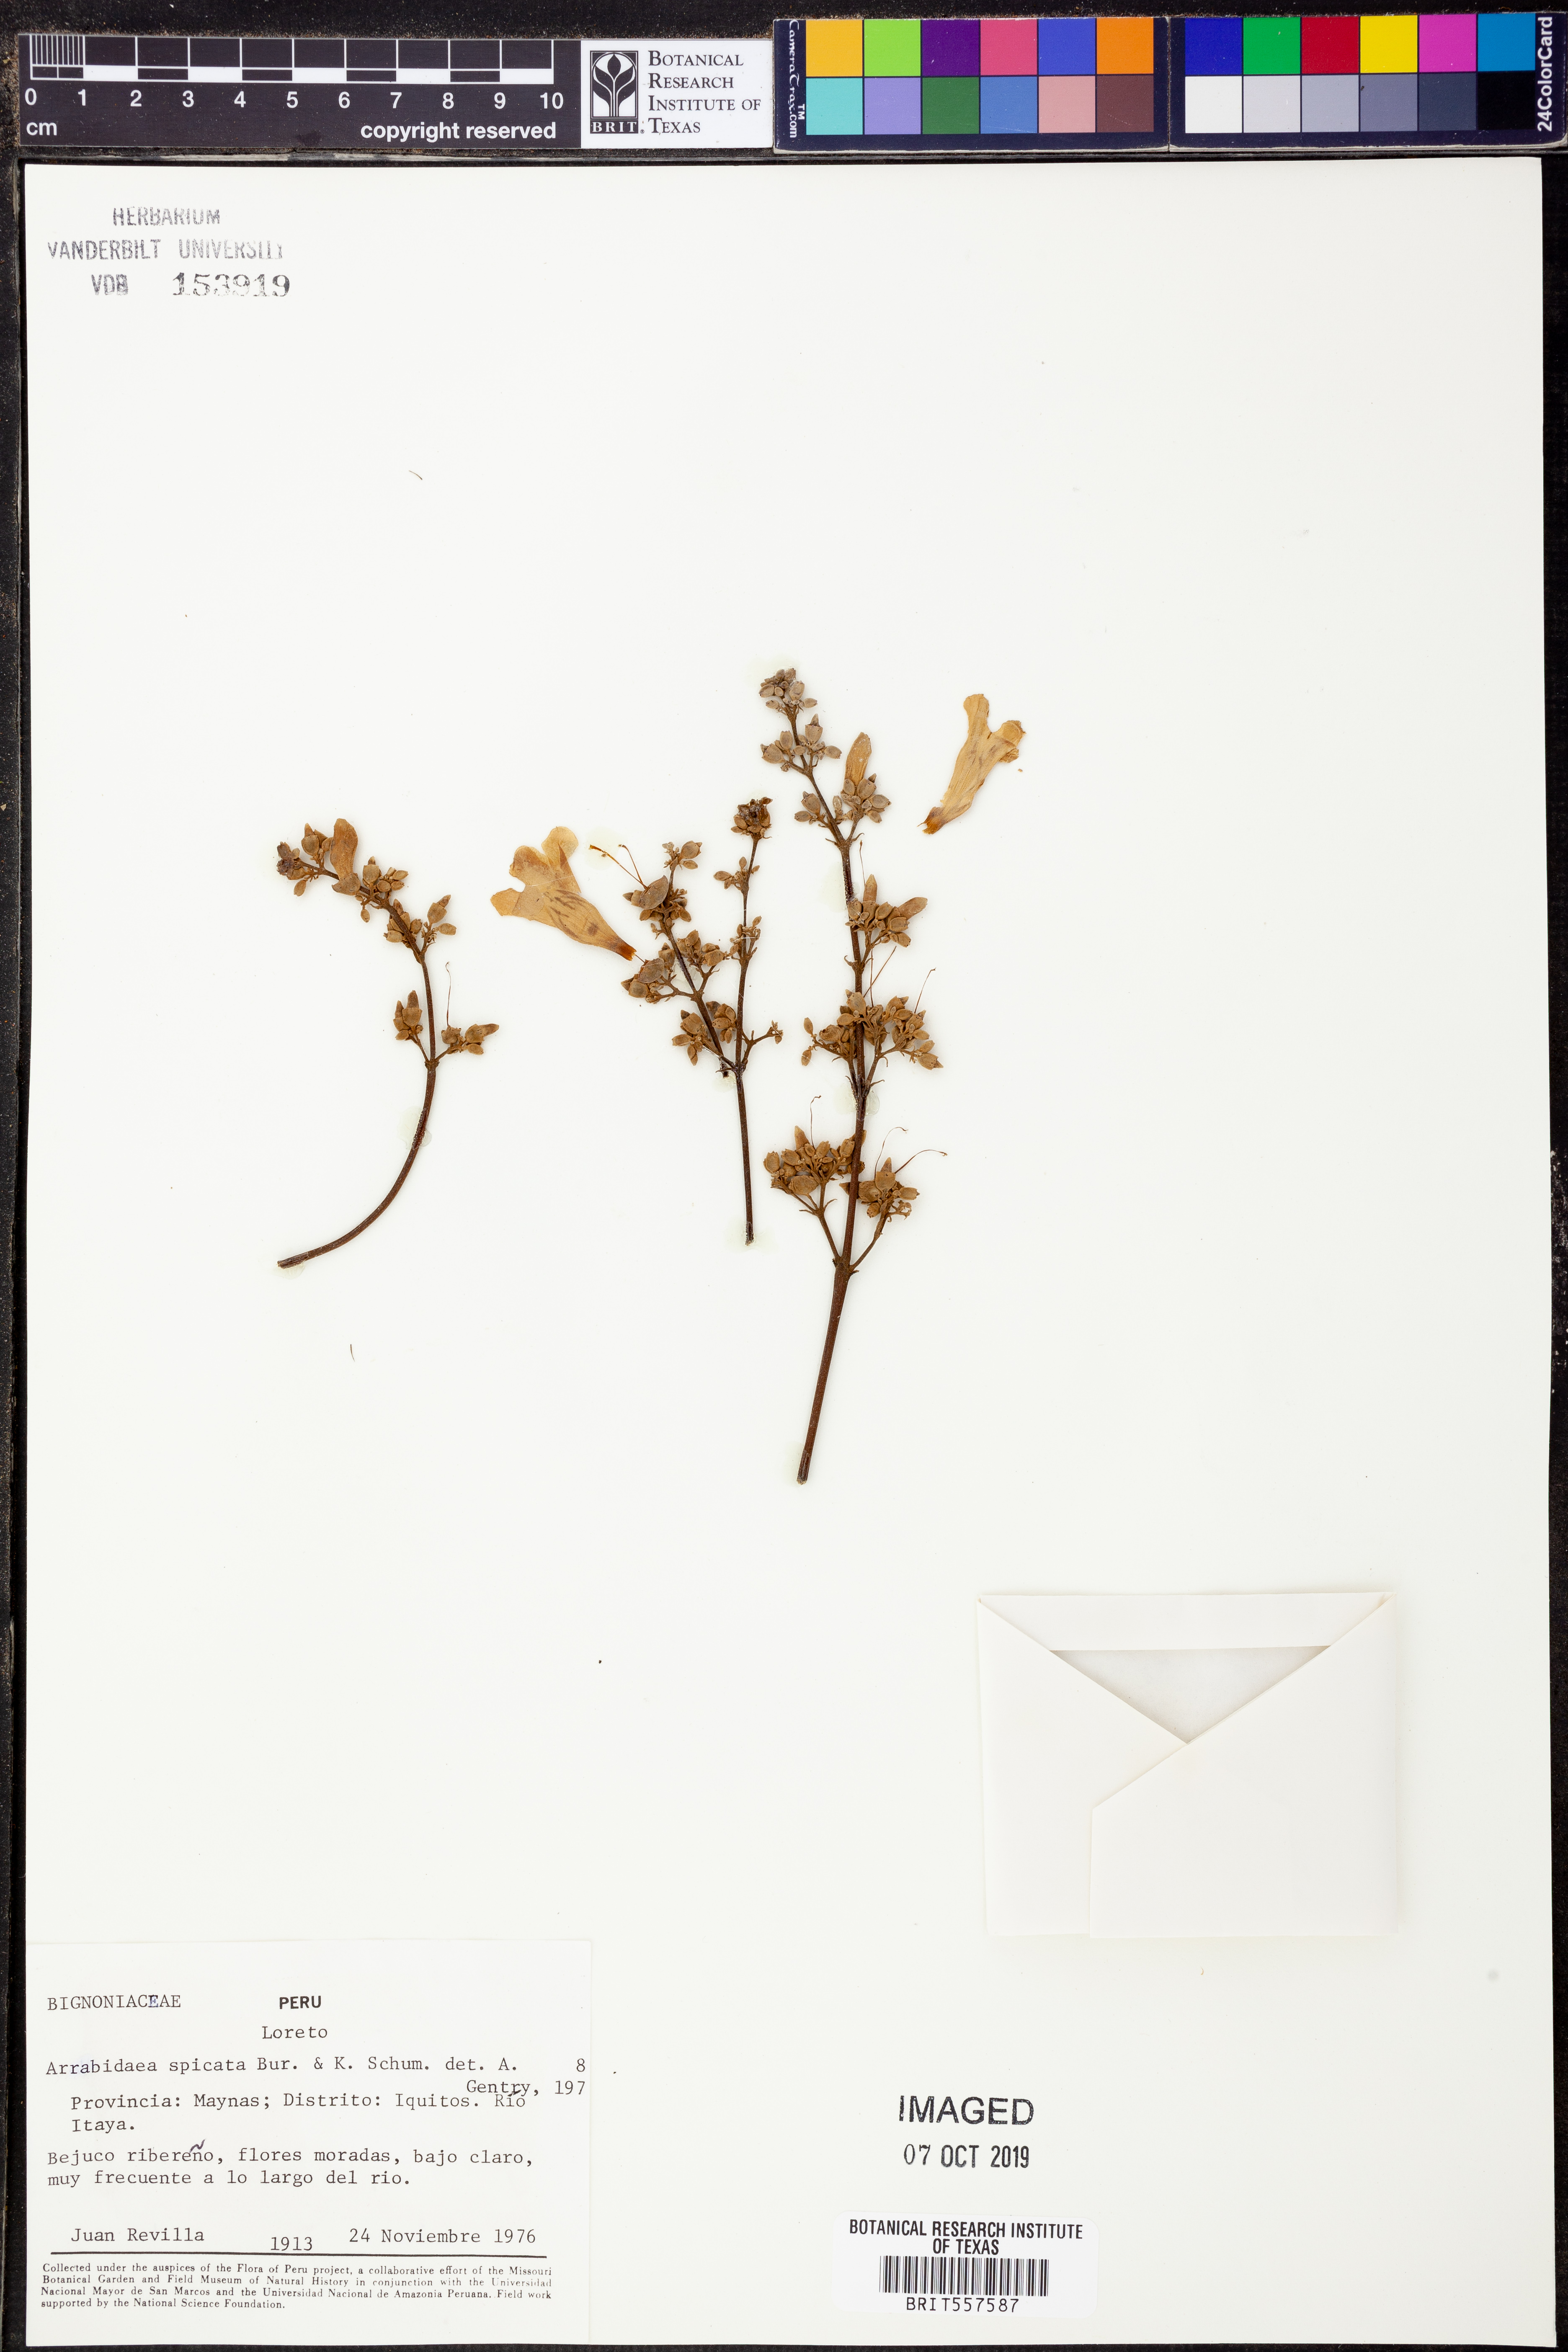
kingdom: Plantae
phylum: Tracheophyta
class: Magnoliopsida
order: Lamiales
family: Bignoniaceae
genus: Fridericia
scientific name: Fridericia spicata
